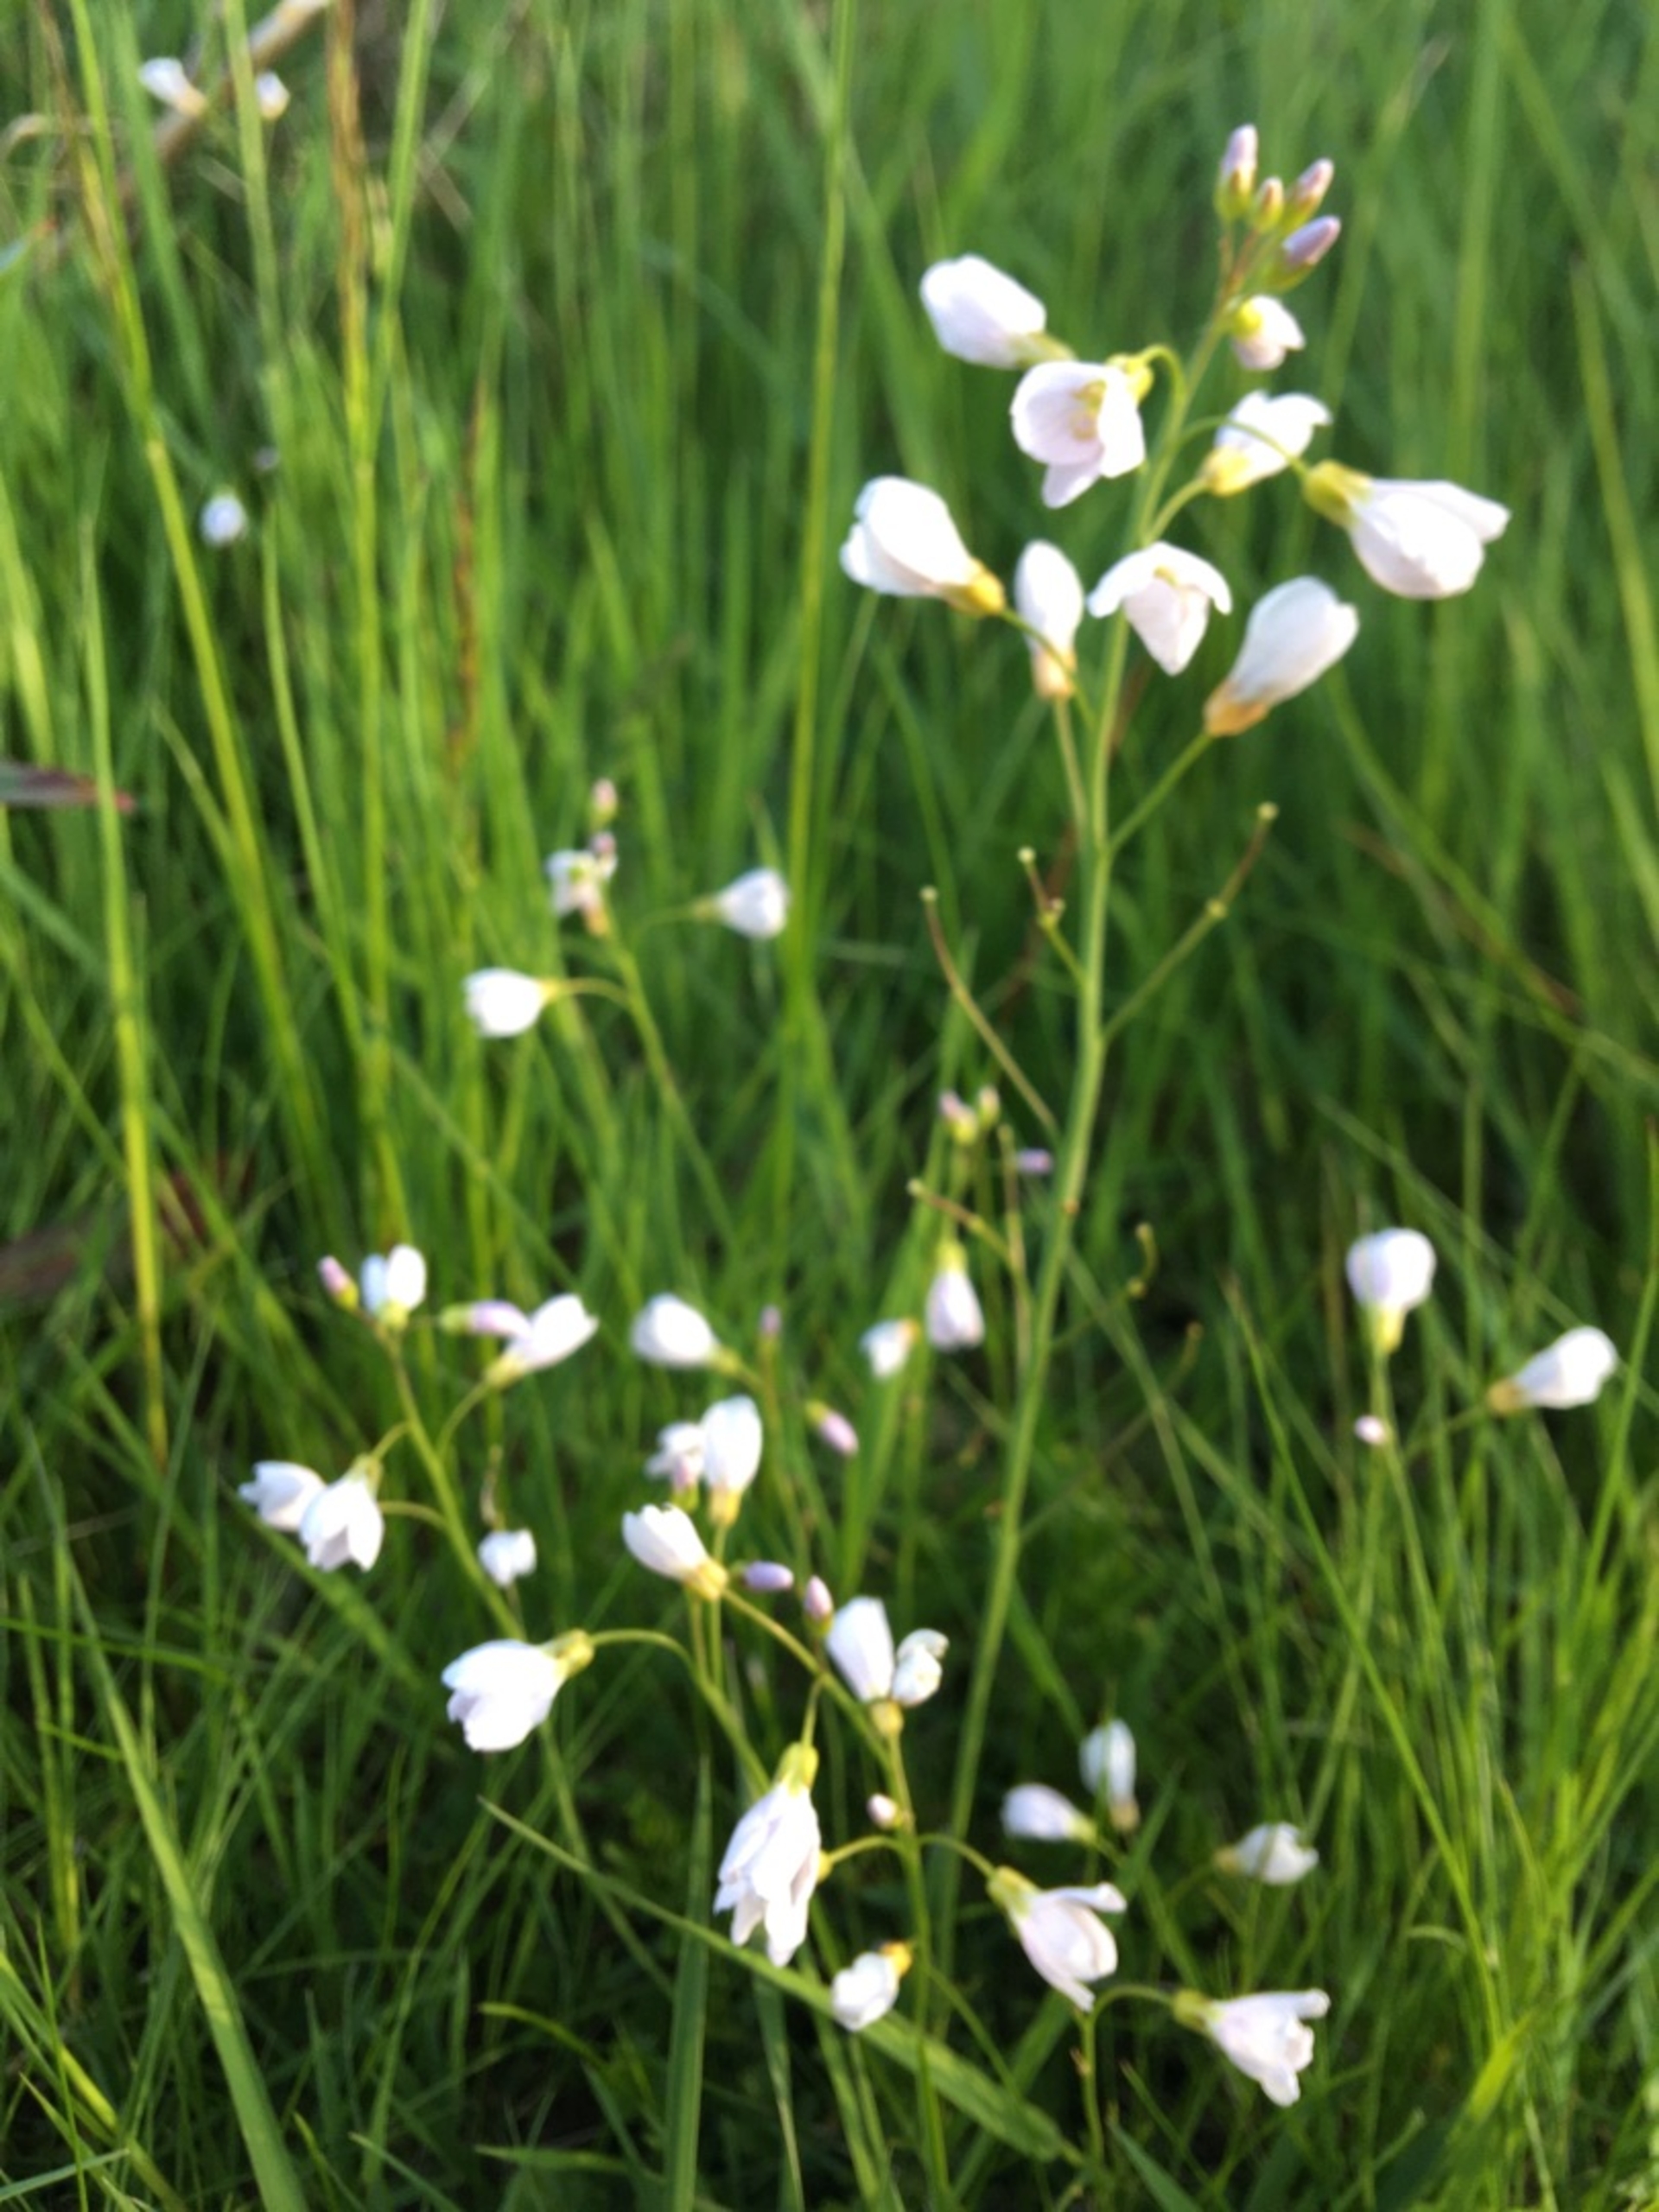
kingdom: Plantae
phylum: Tracheophyta
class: Magnoliopsida
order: Brassicales
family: Brassicaceae
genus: Cardamine
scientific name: Cardamine pratensis
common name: Engkarse
